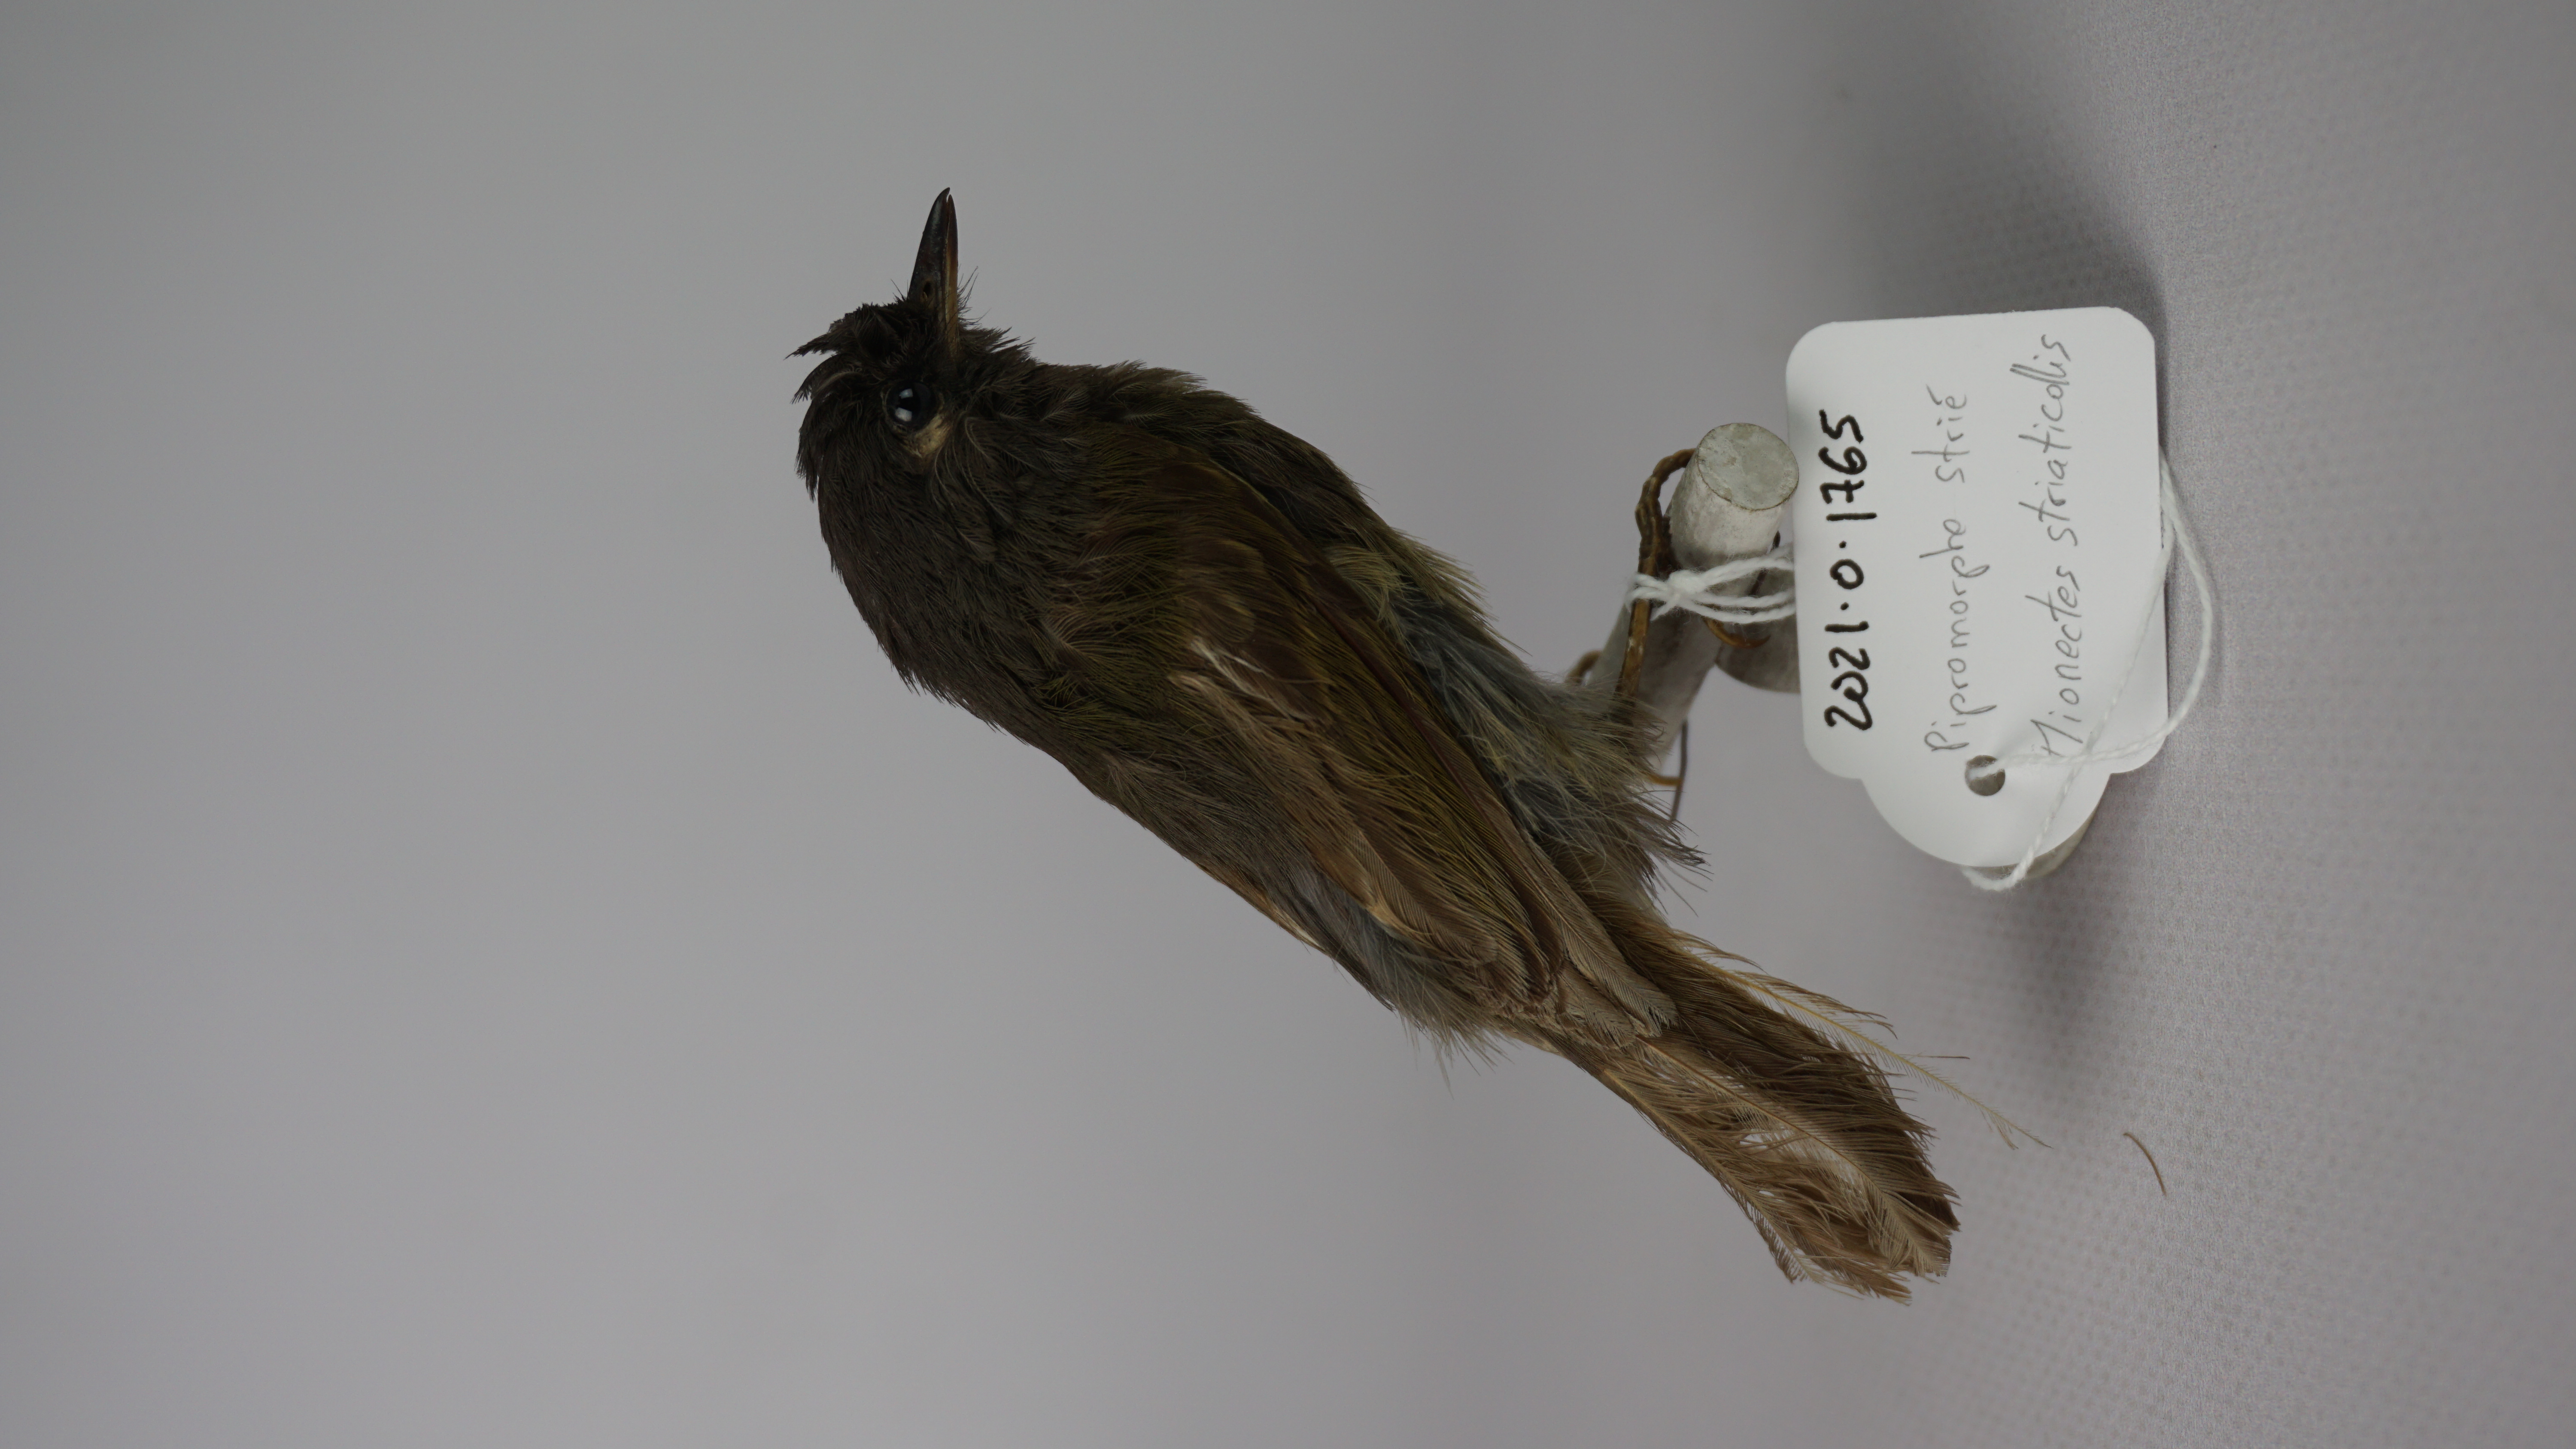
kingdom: Animalia
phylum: Chordata
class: Aves
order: Passeriformes
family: Tyrannidae
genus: Mionectes
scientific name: Mionectes striaticollis
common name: Streak-necked flycatcher
